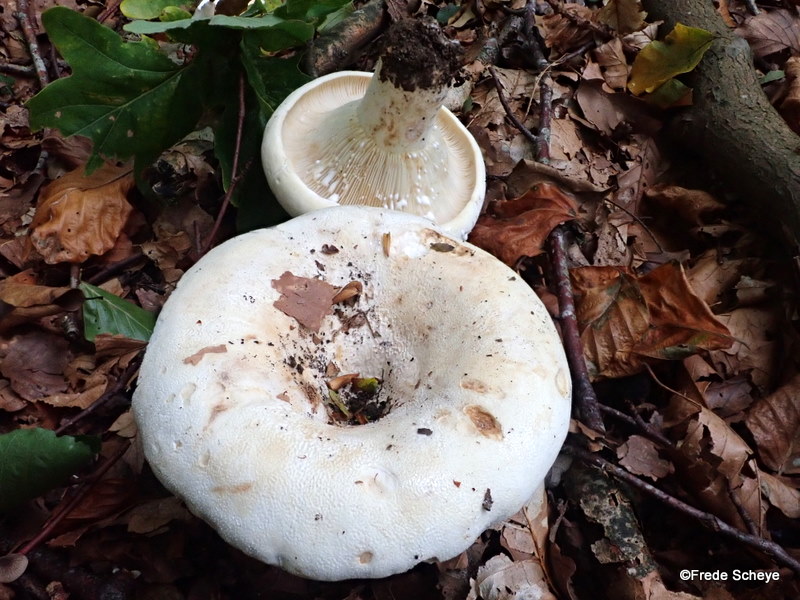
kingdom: Fungi
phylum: Basidiomycota
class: Agaricomycetes
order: Russulales
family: Russulaceae
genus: Lactifluus
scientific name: Lactifluus piperatus
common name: peber-mælkehat
